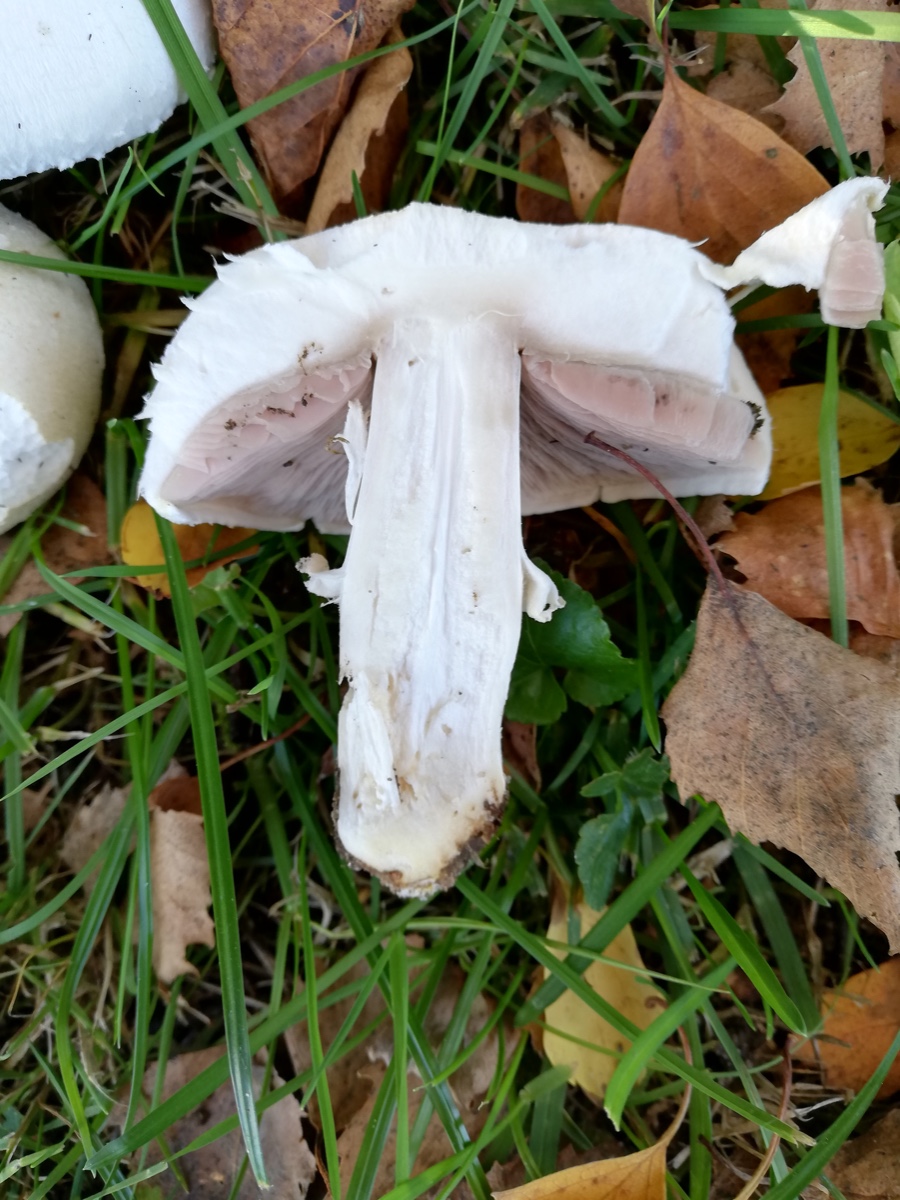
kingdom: Fungi
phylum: Basidiomycota
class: Agaricomycetes
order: Agaricales
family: Agaricaceae
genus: Agaricus
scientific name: Agaricus
